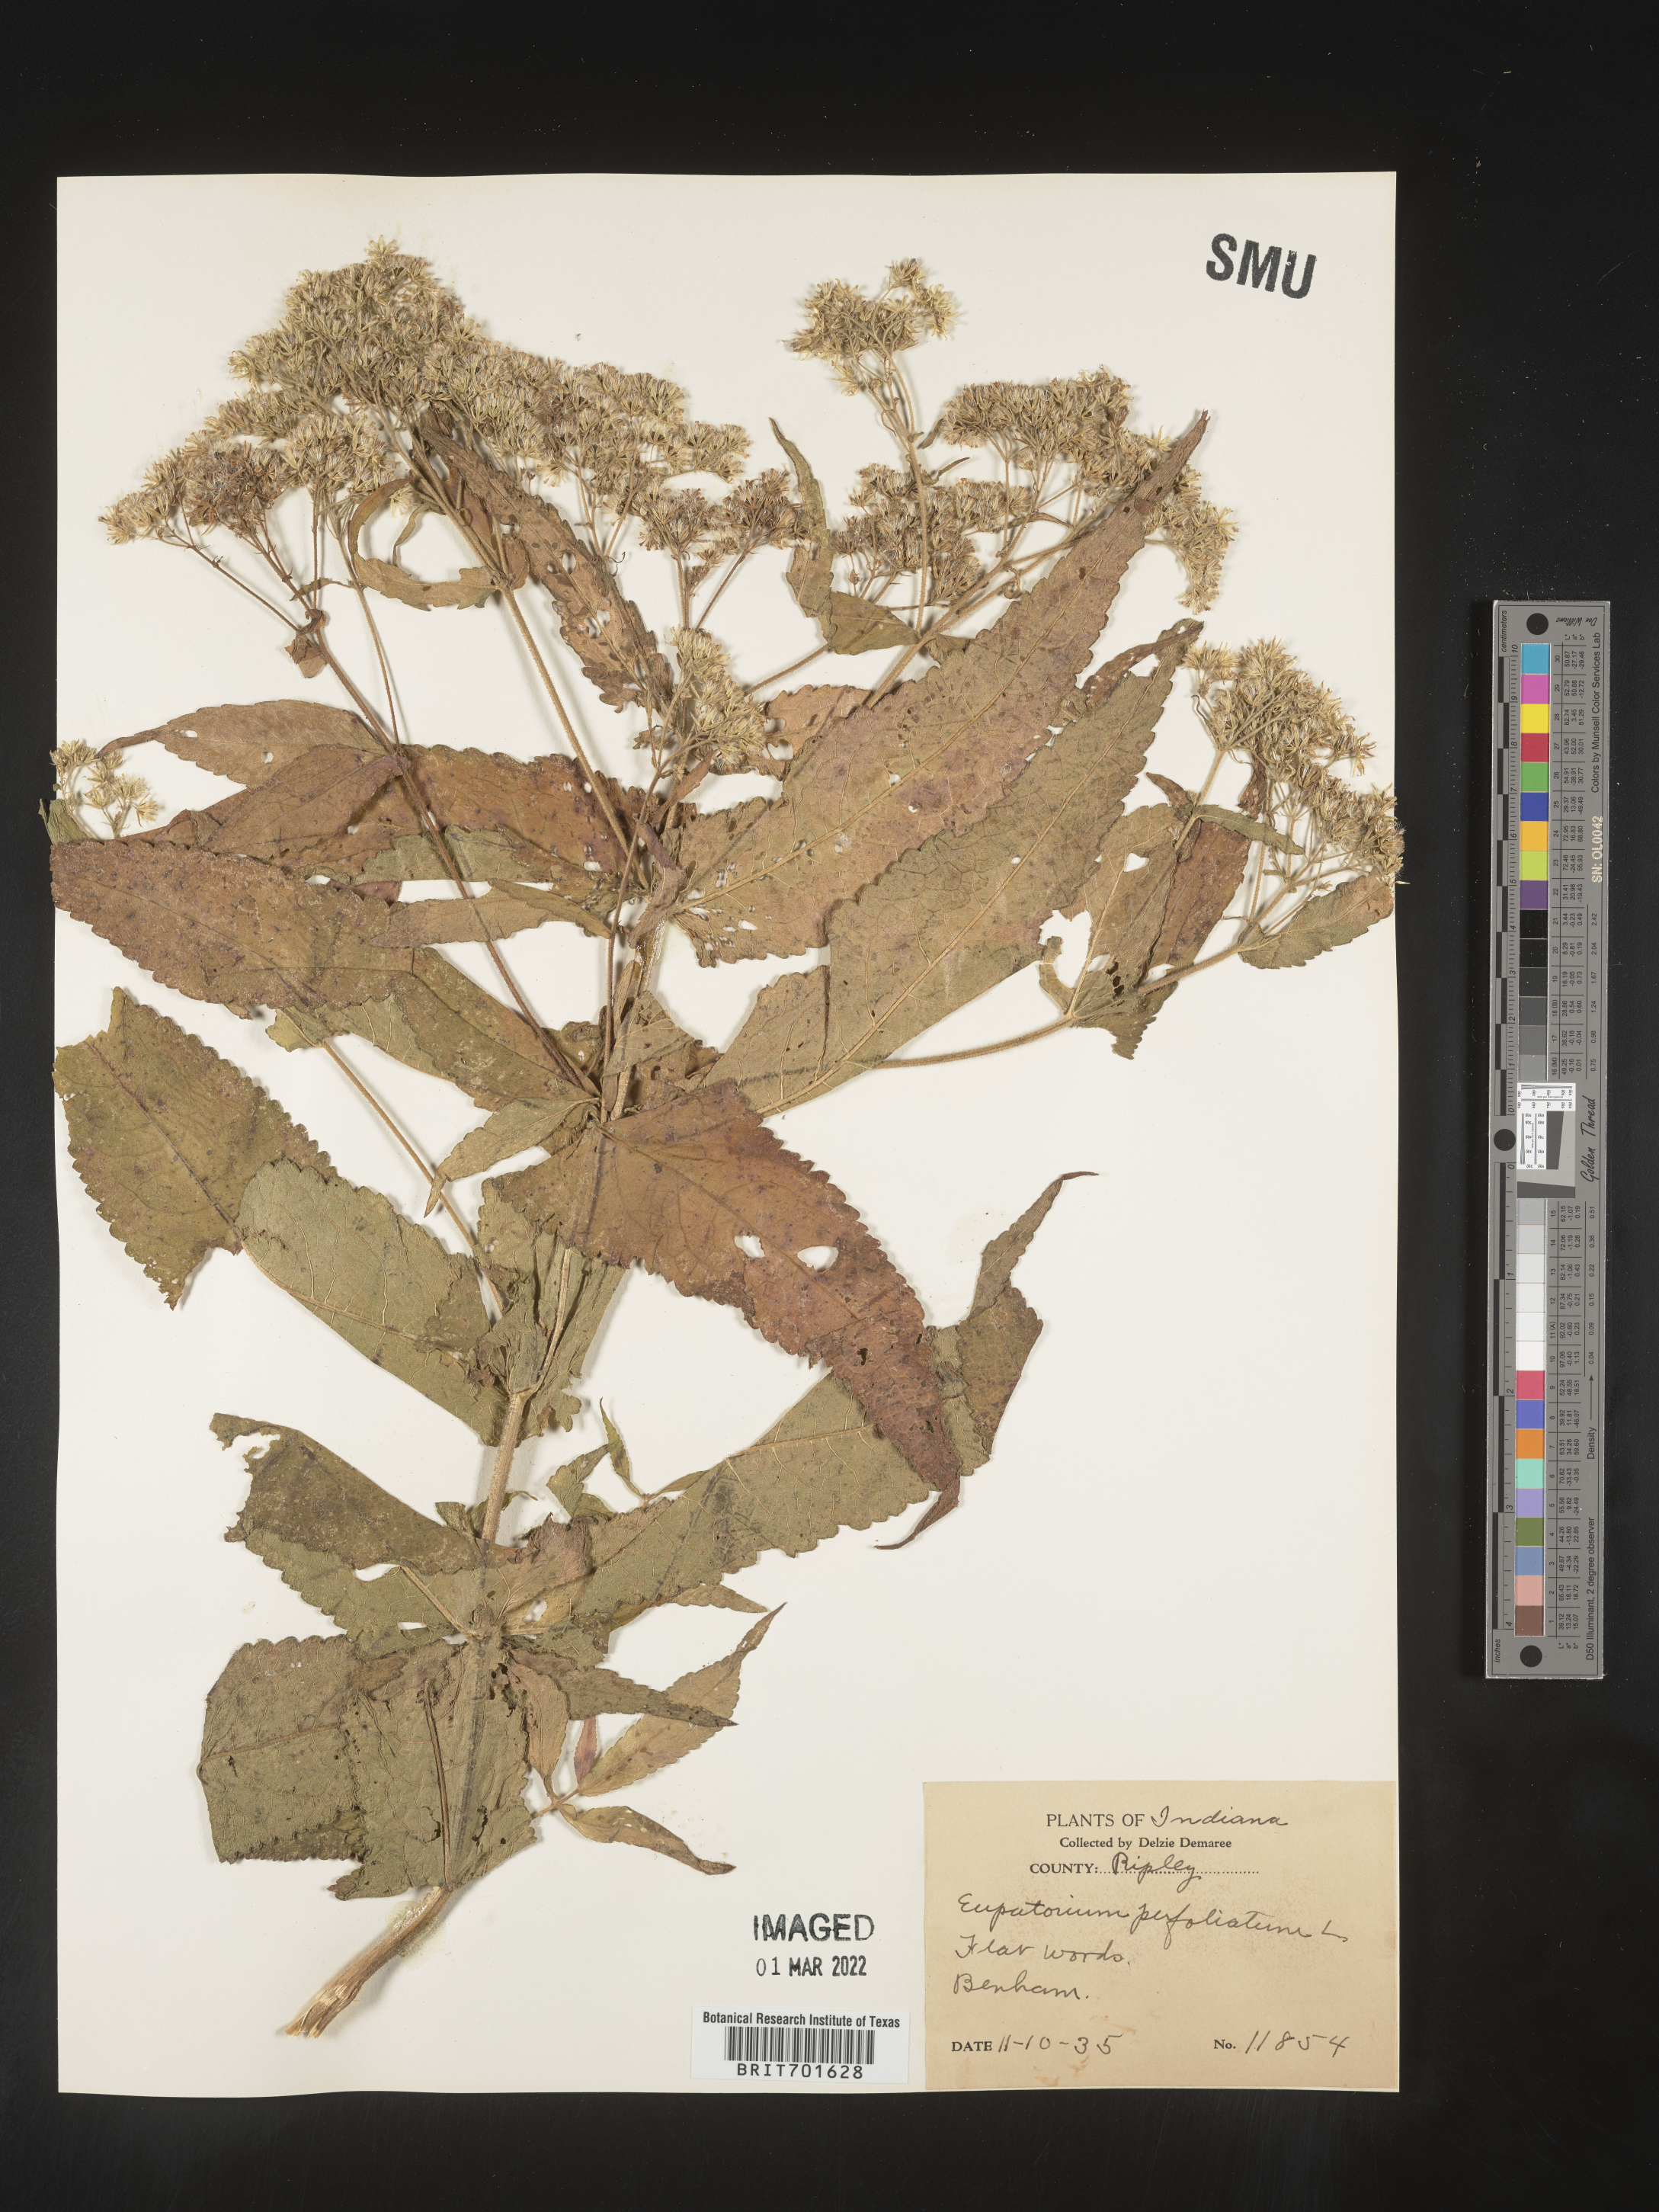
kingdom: Plantae
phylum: Tracheophyta
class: Magnoliopsida
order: Asterales
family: Asteraceae
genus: Eupatorium
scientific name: Eupatorium perfoliatum
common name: Boneset
